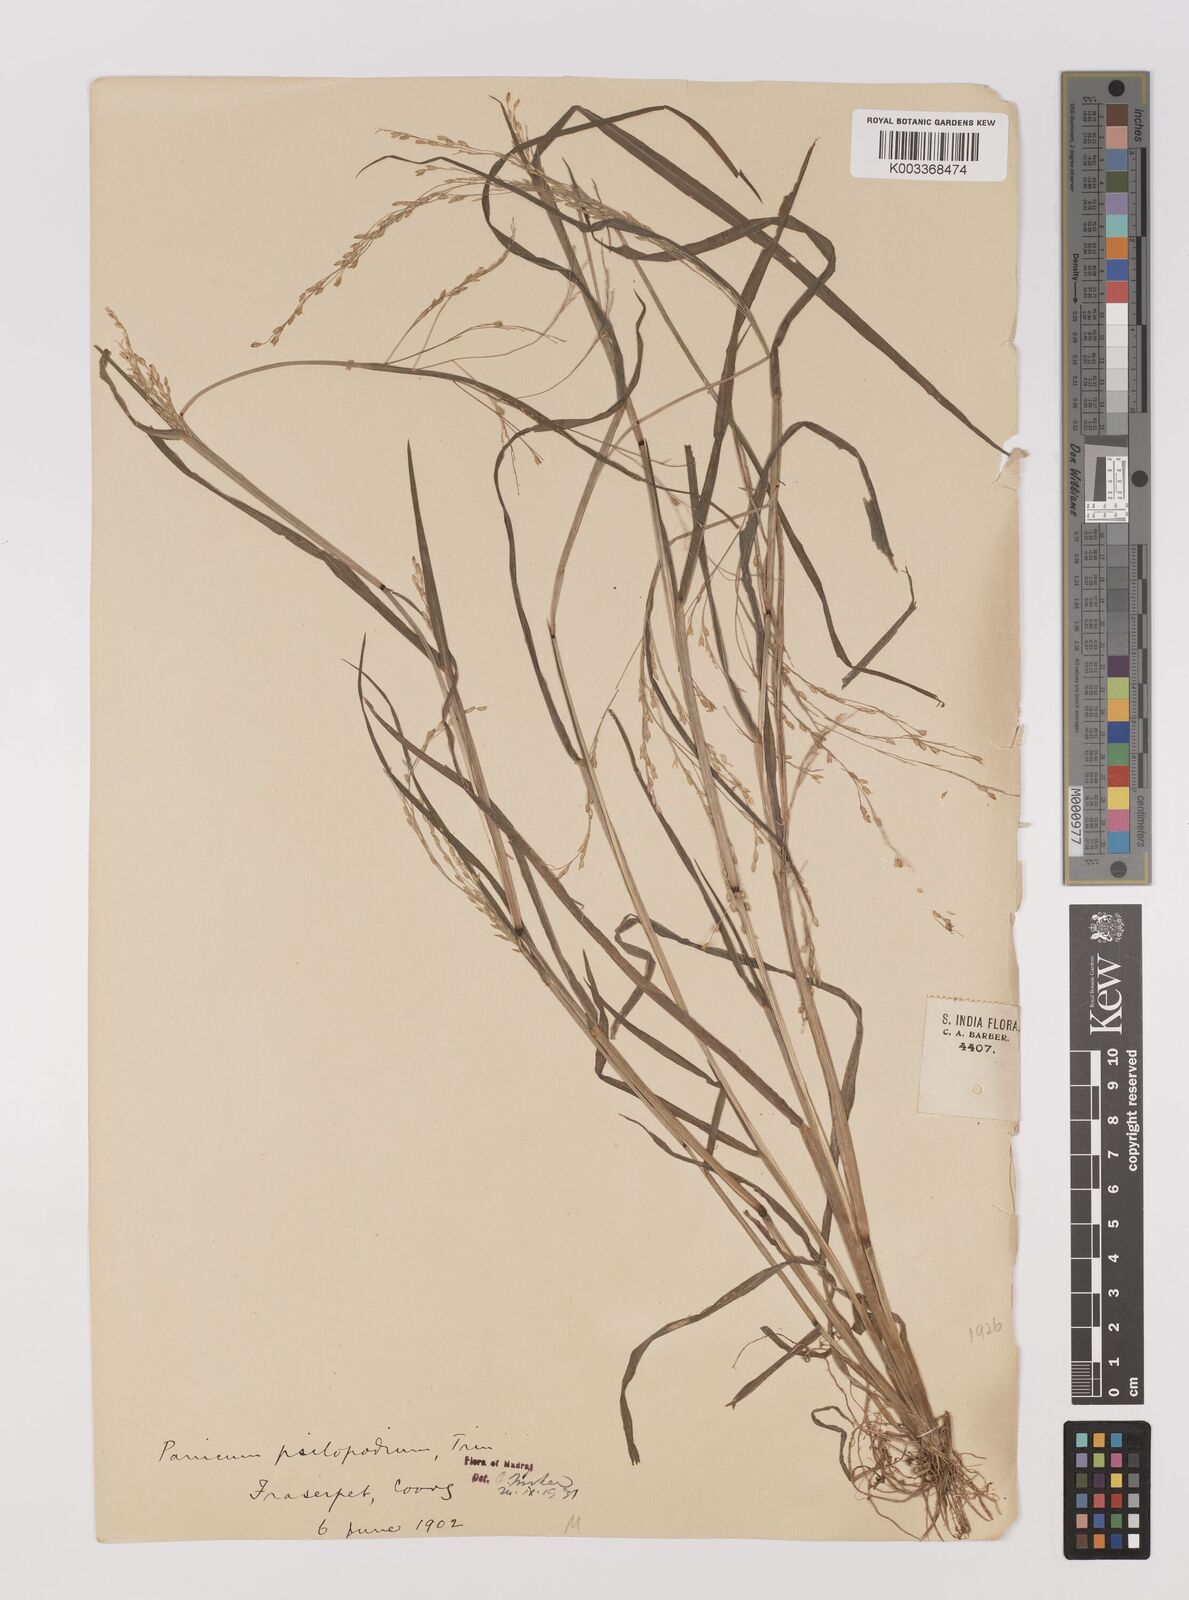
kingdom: Plantae
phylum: Tracheophyta
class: Liliopsida
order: Poales
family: Poaceae
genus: Panicum
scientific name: Panicum sumatrense
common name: Little millet
